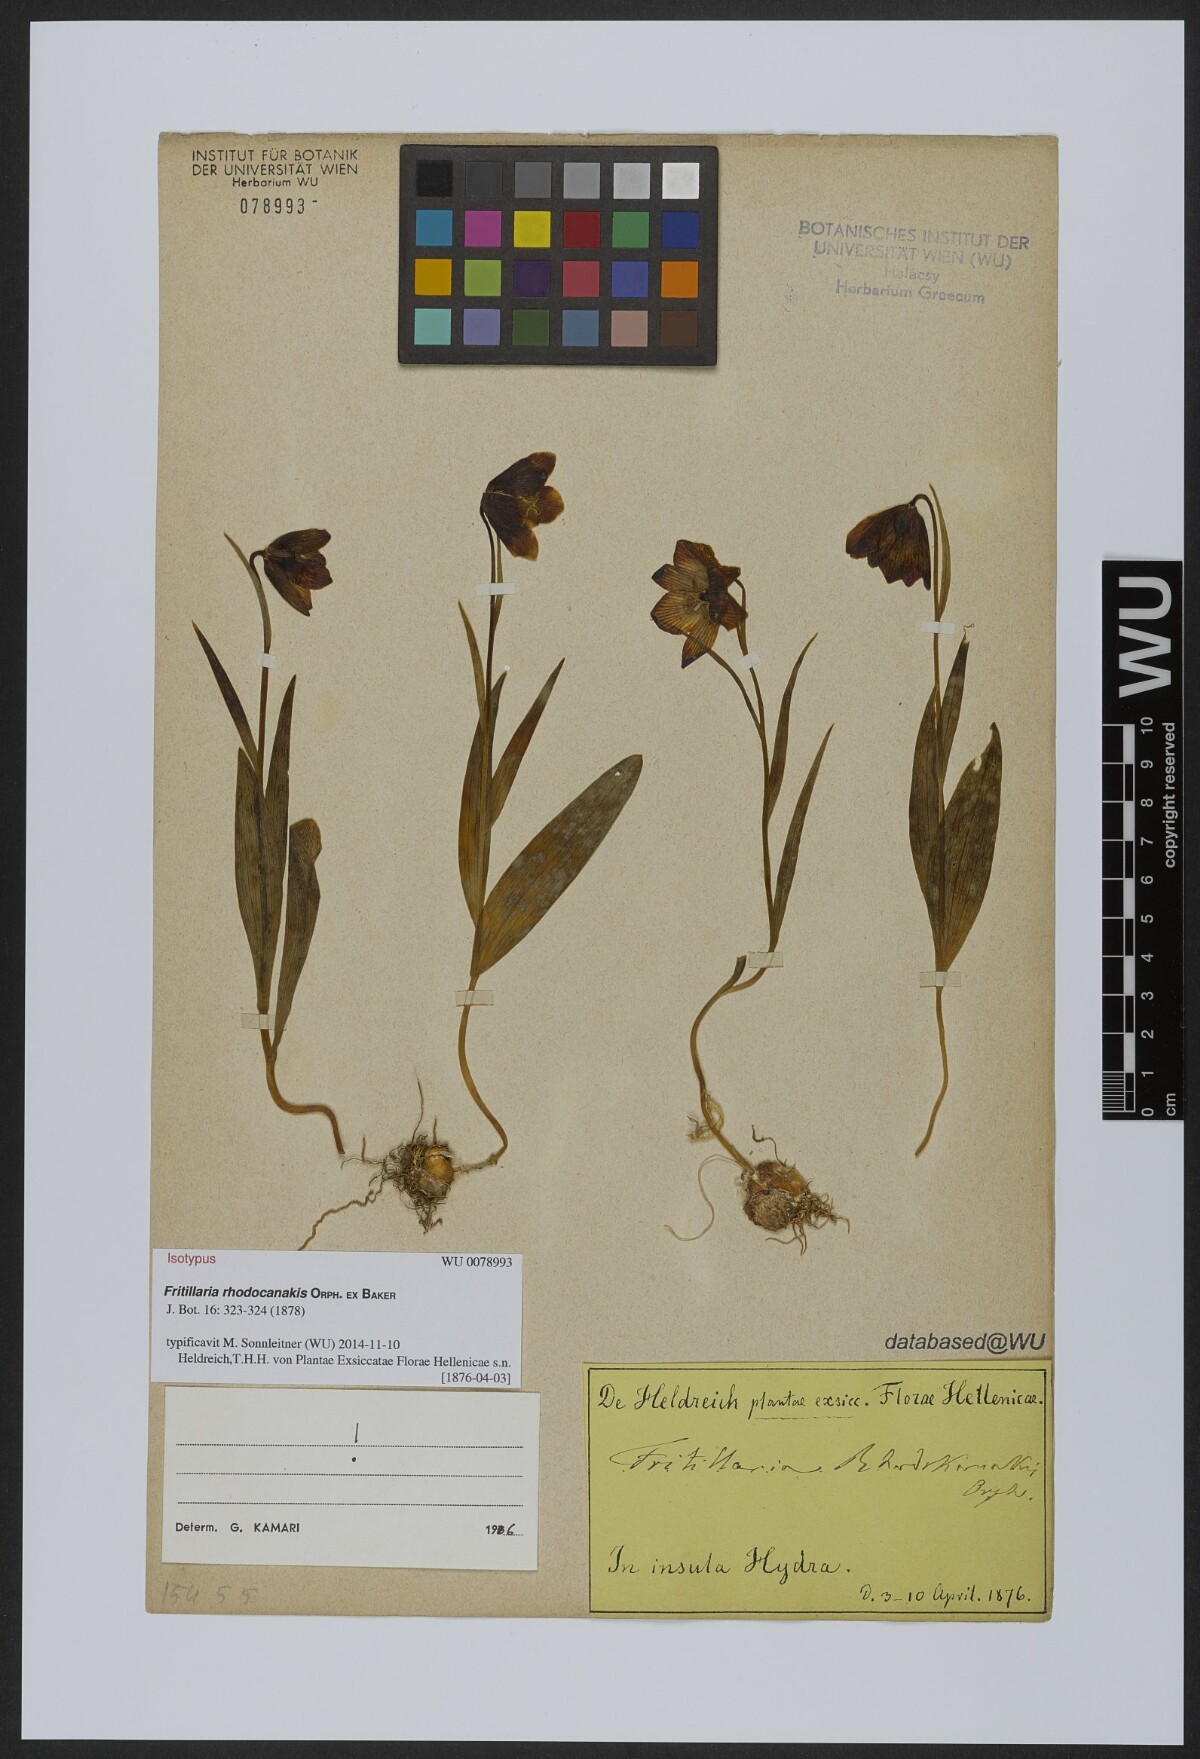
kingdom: Plantae
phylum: Tracheophyta
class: Liliopsida
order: Liliales
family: Liliaceae
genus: Fritillaria
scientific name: Fritillaria rhodocanakis
